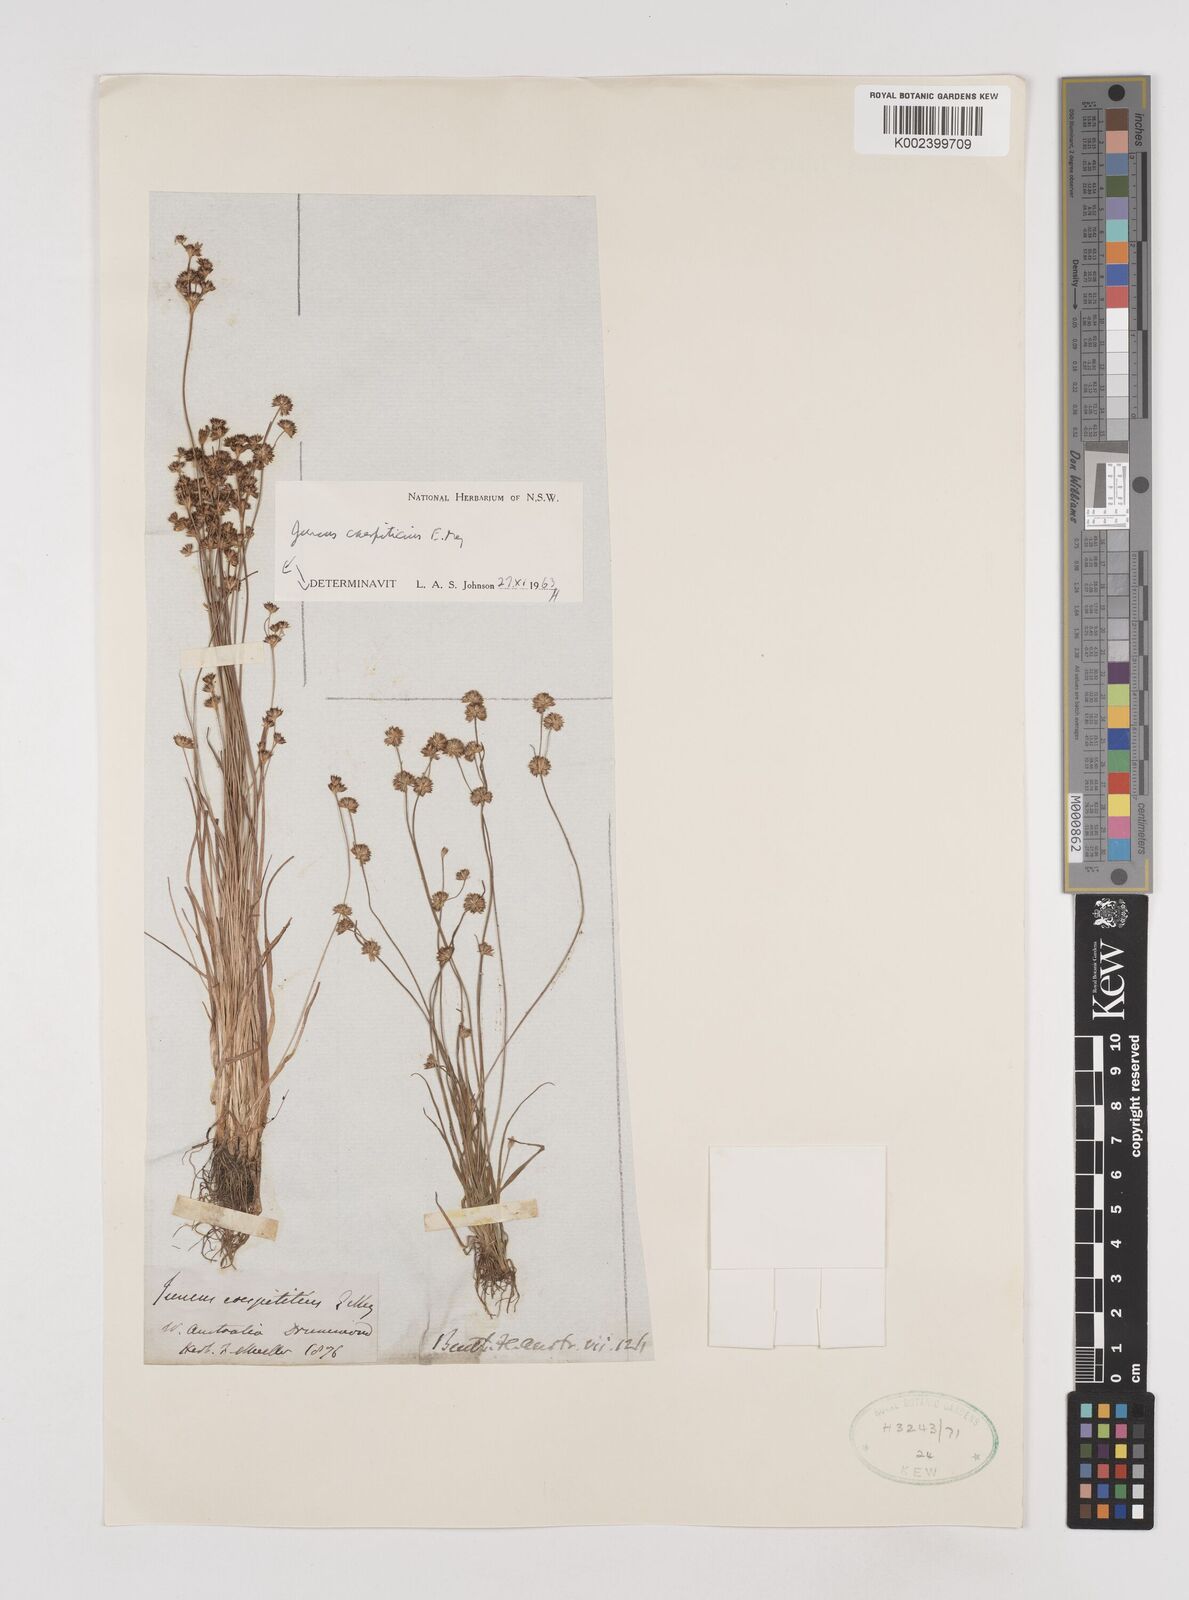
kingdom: Plantae
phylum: Tracheophyta
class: Liliopsida
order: Poales
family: Juncaceae
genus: Juncus
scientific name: Juncus caespiticius
